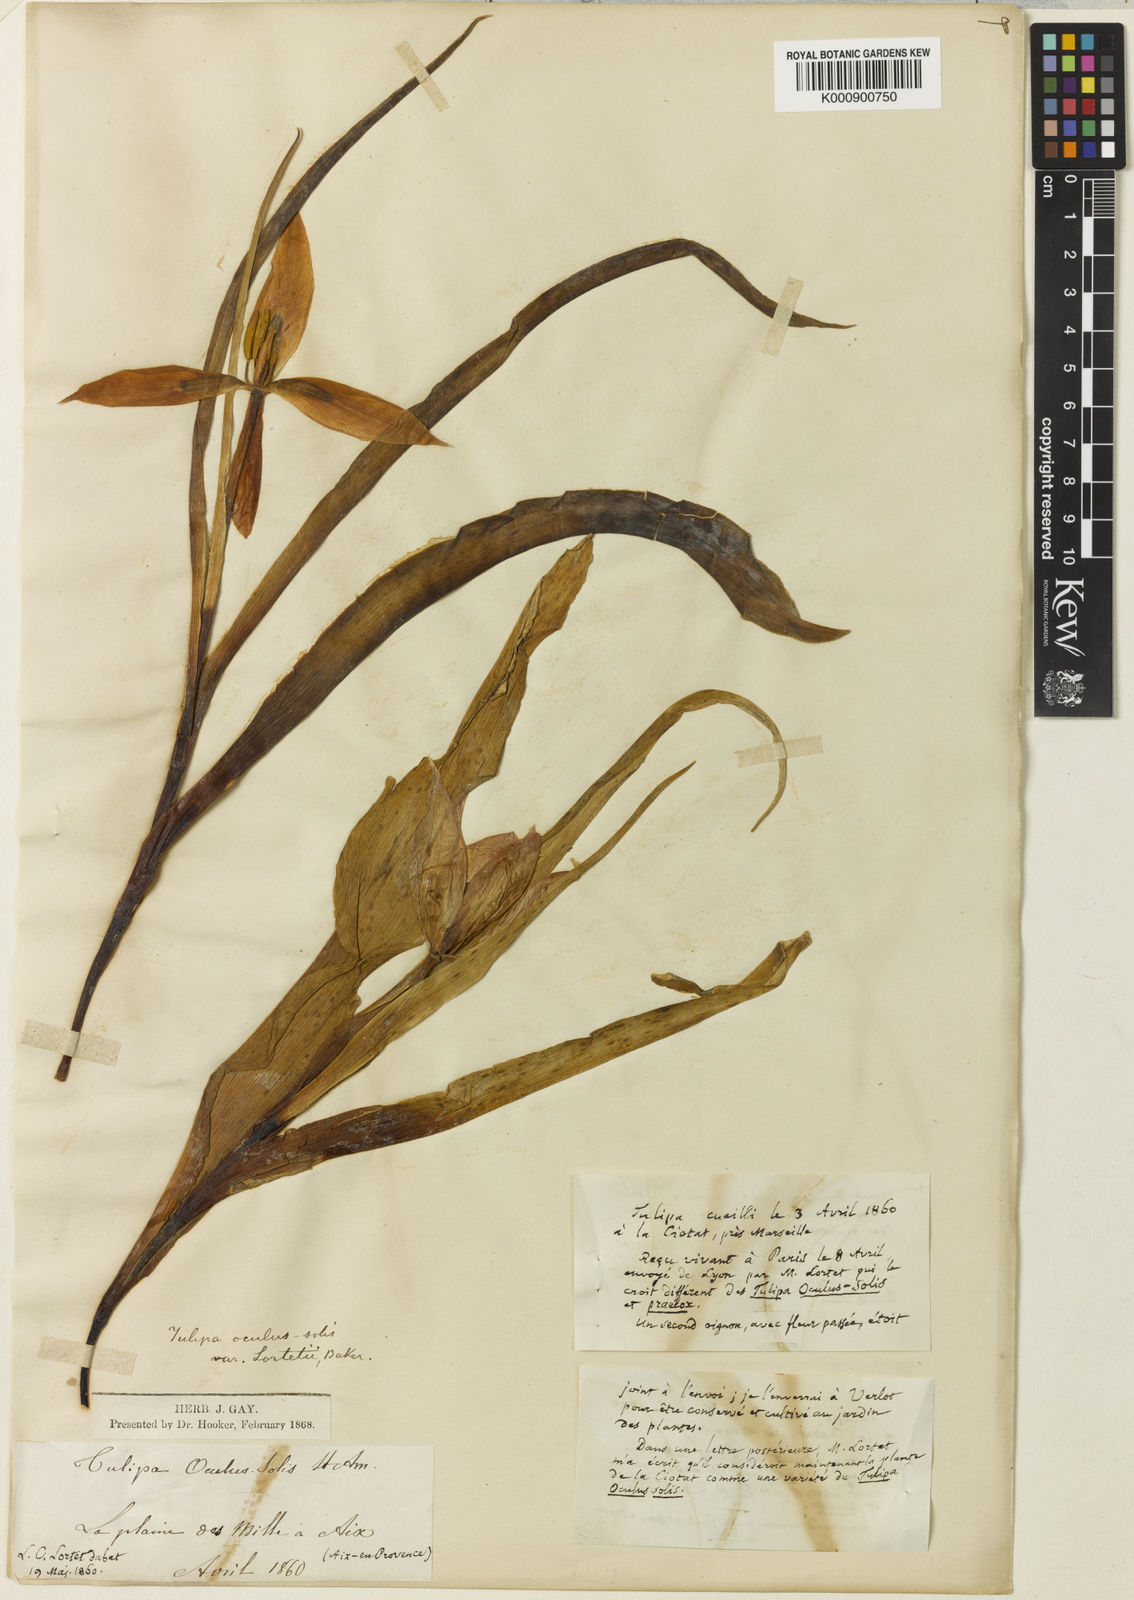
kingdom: Plantae
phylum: Tracheophyta
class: Liliopsida
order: Liliales
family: Liliaceae
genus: Tulipa
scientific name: Tulipa agenensis
